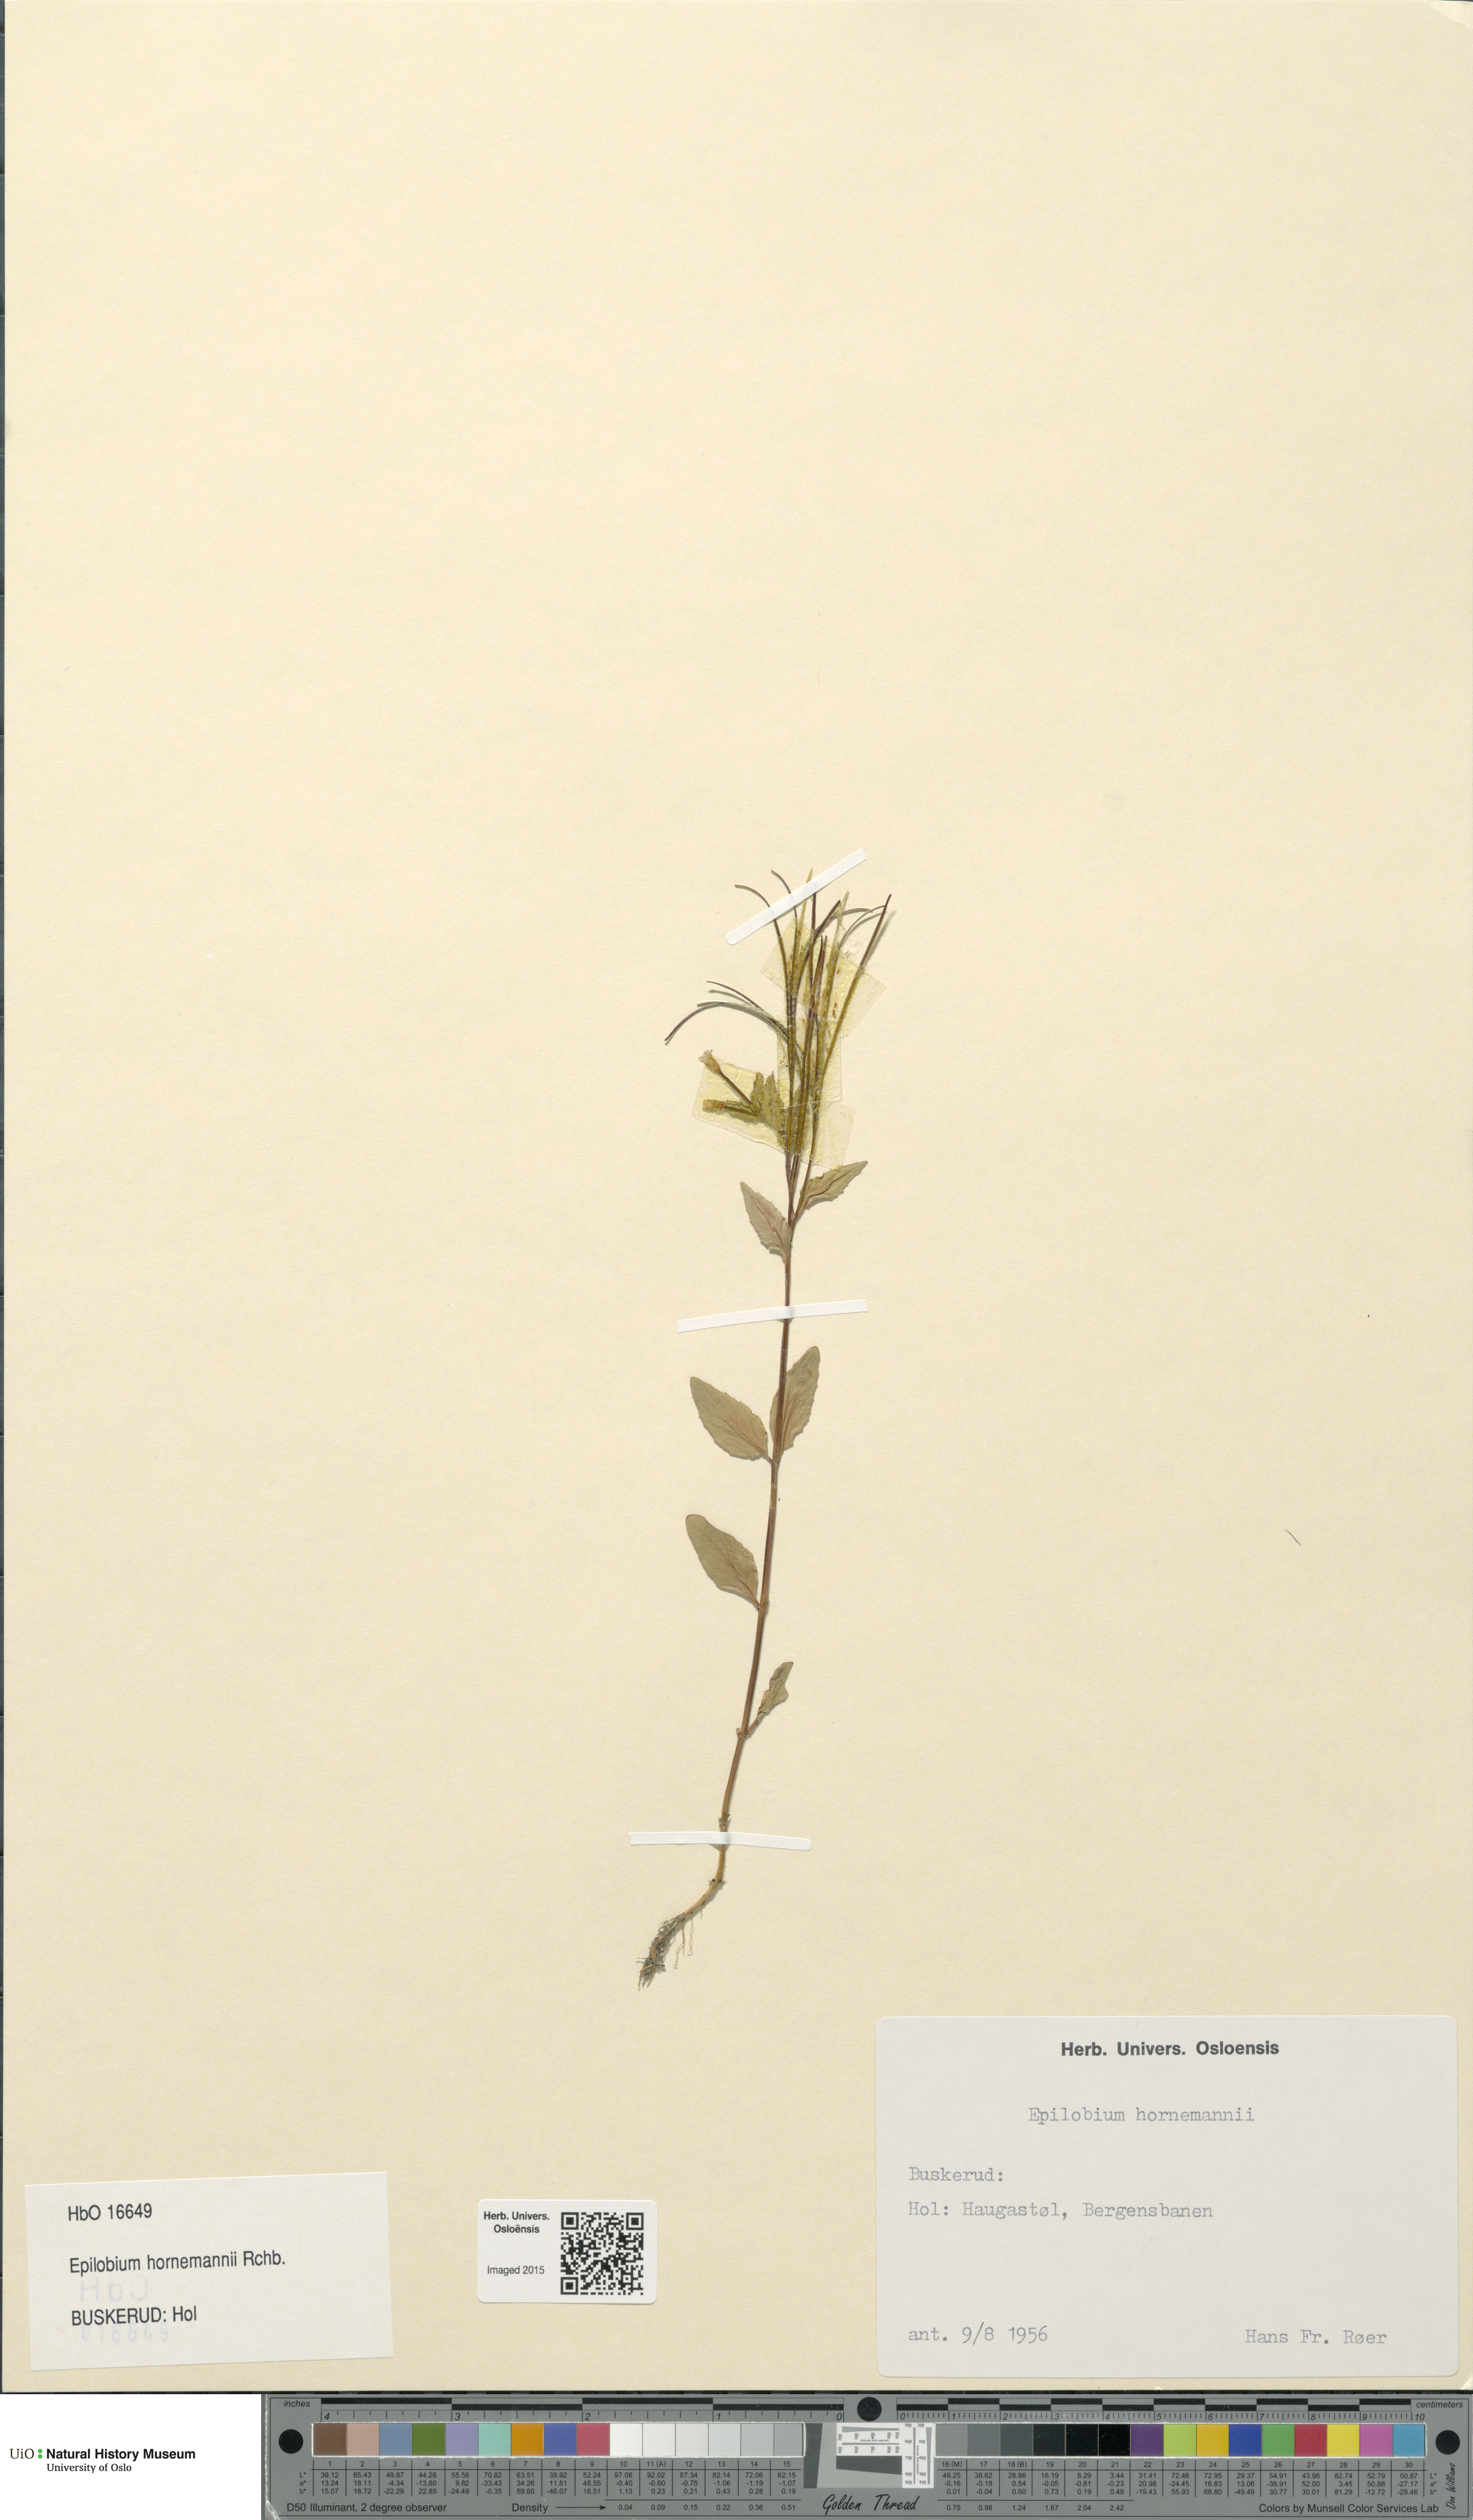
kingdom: Plantae
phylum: Tracheophyta
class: Magnoliopsida
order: Myrtales
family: Onagraceae
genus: Epilobium
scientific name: Epilobium hornemannii
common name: Hornemann's willowherb
